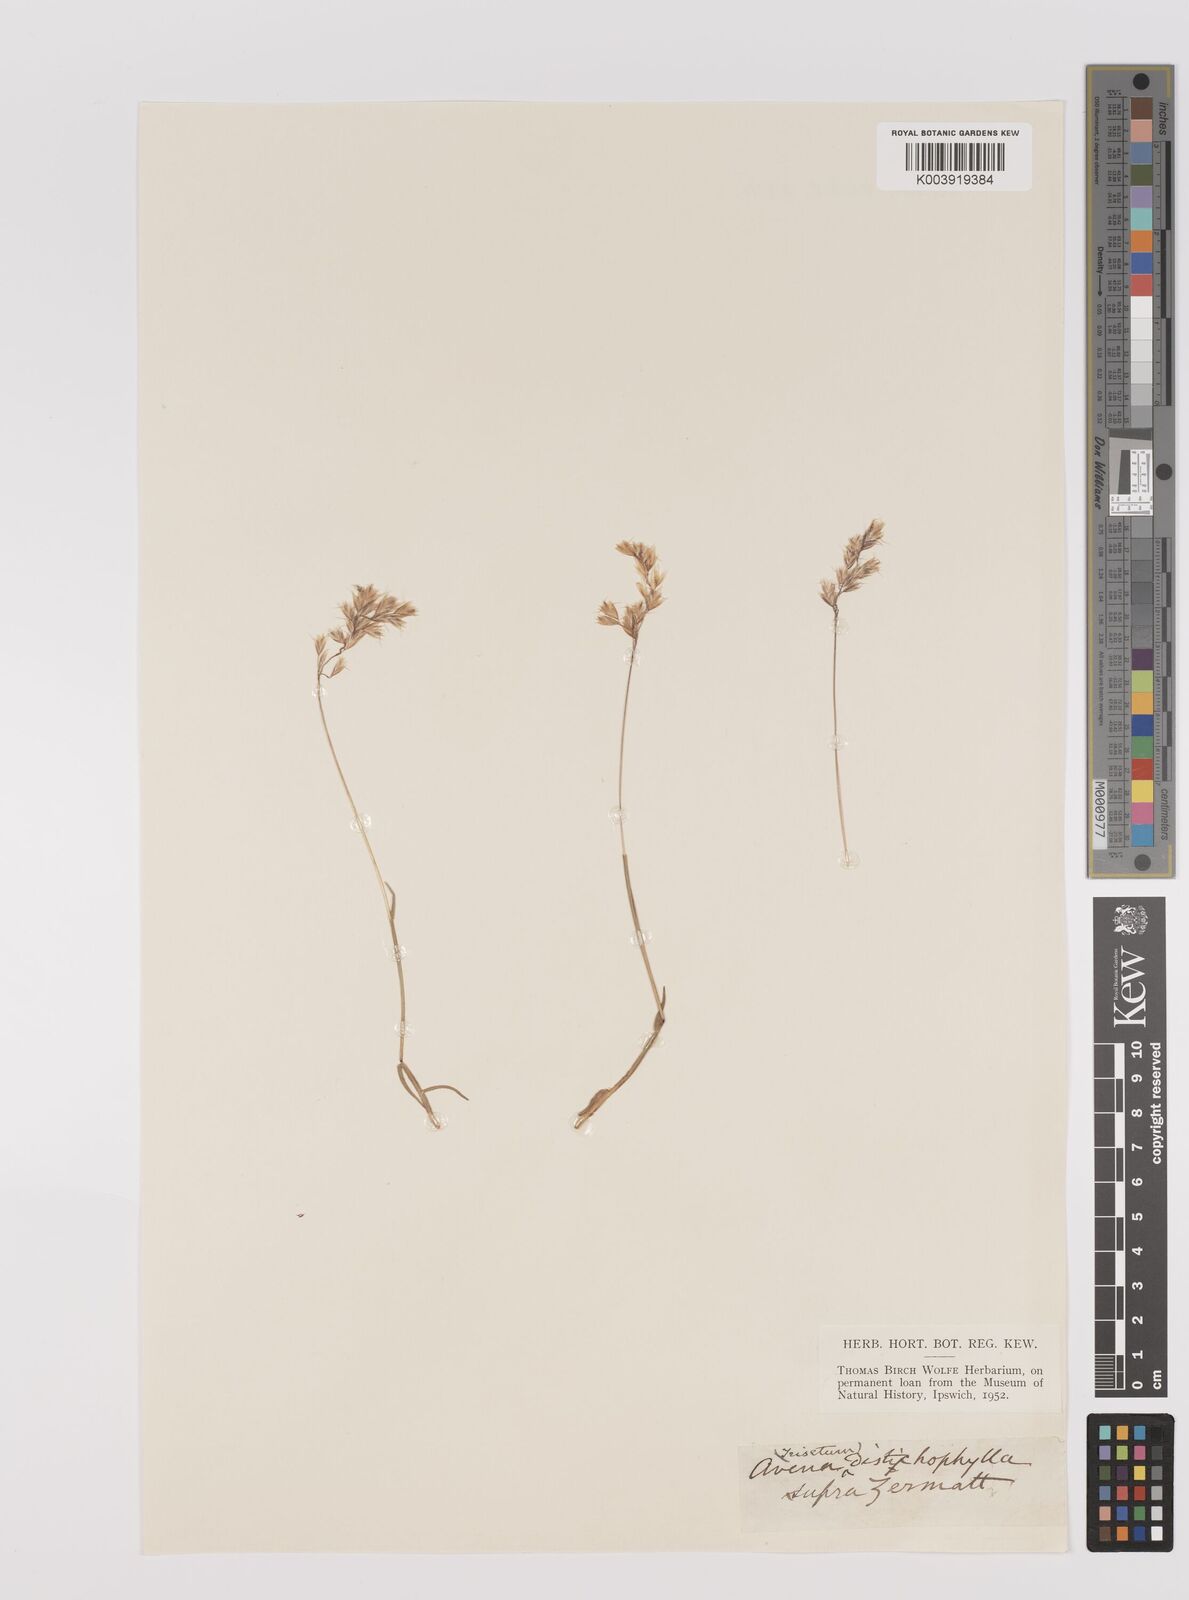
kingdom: Plantae
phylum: Tracheophyta
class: Liliopsida
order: Poales
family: Poaceae
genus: Acrospelion
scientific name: Acrospelion distichophyllum
